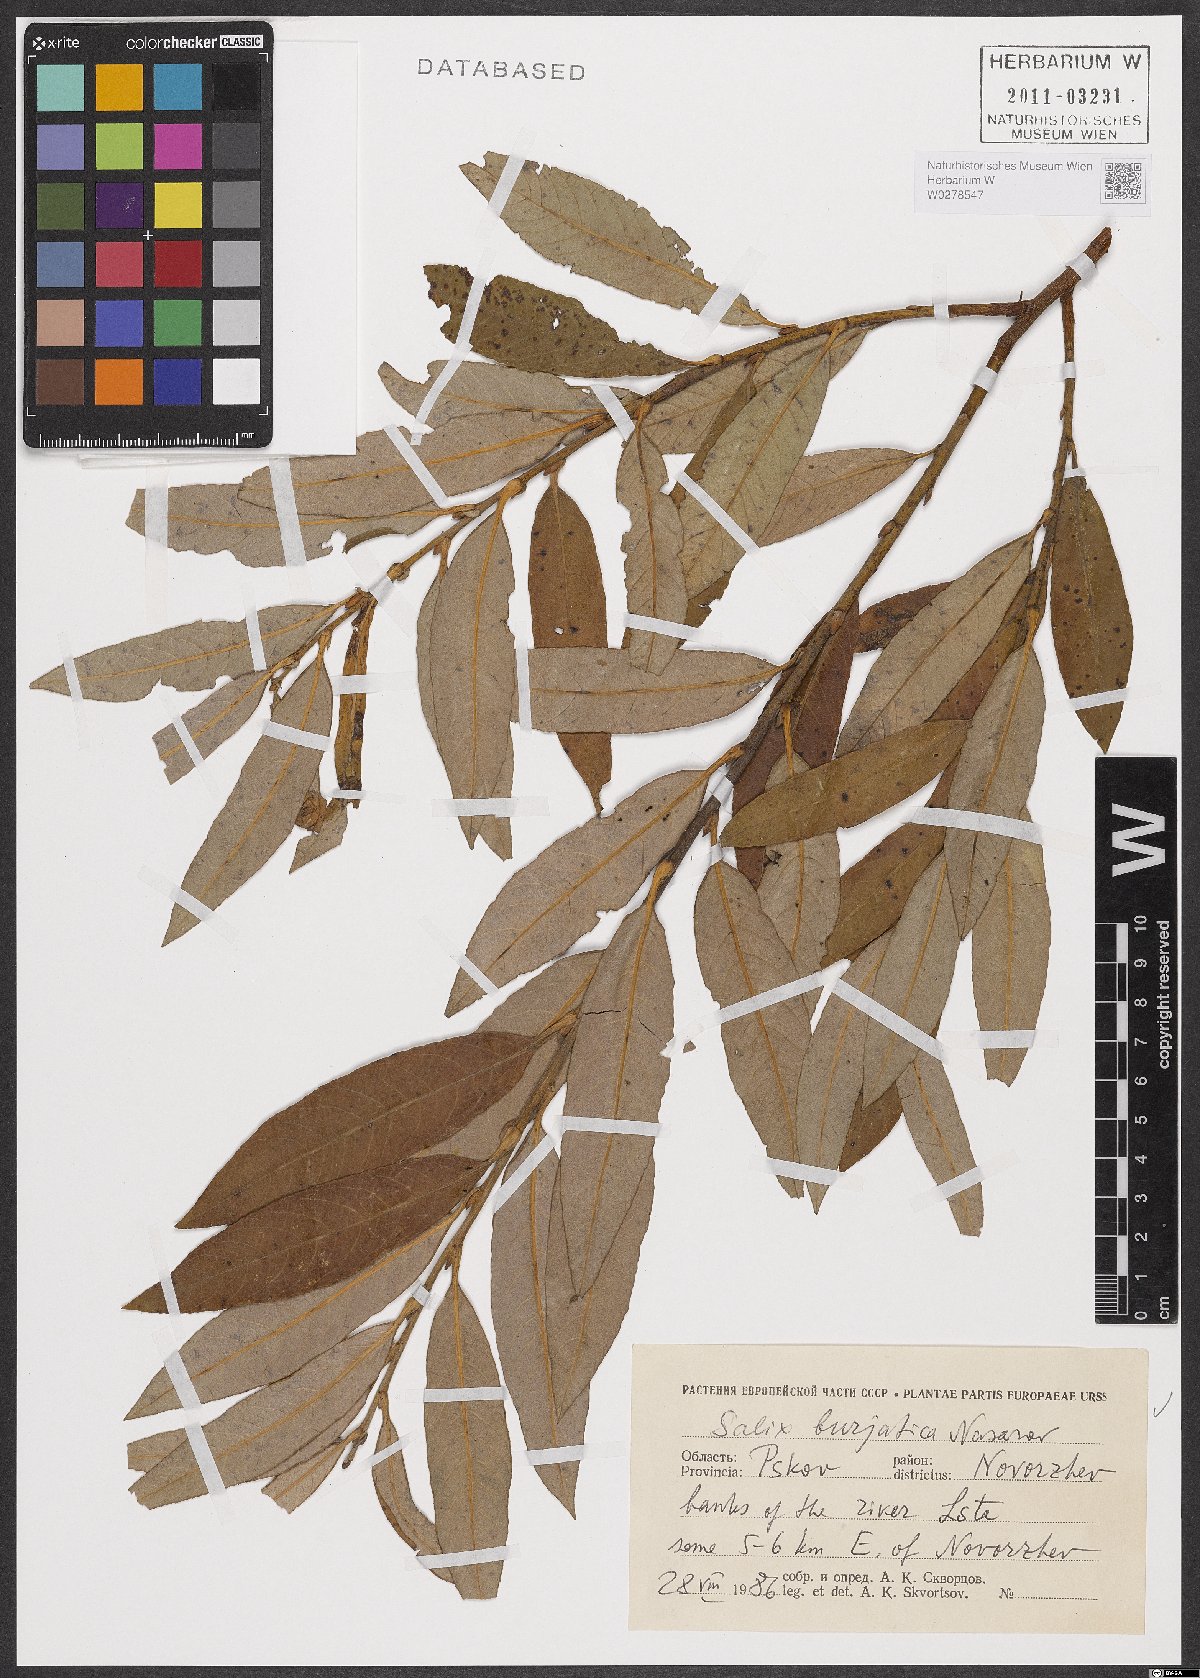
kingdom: Plantae
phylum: Tracheophyta
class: Magnoliopsida
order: Malpighiales
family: Salicaceae
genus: Salix
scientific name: Salix gmelinii
